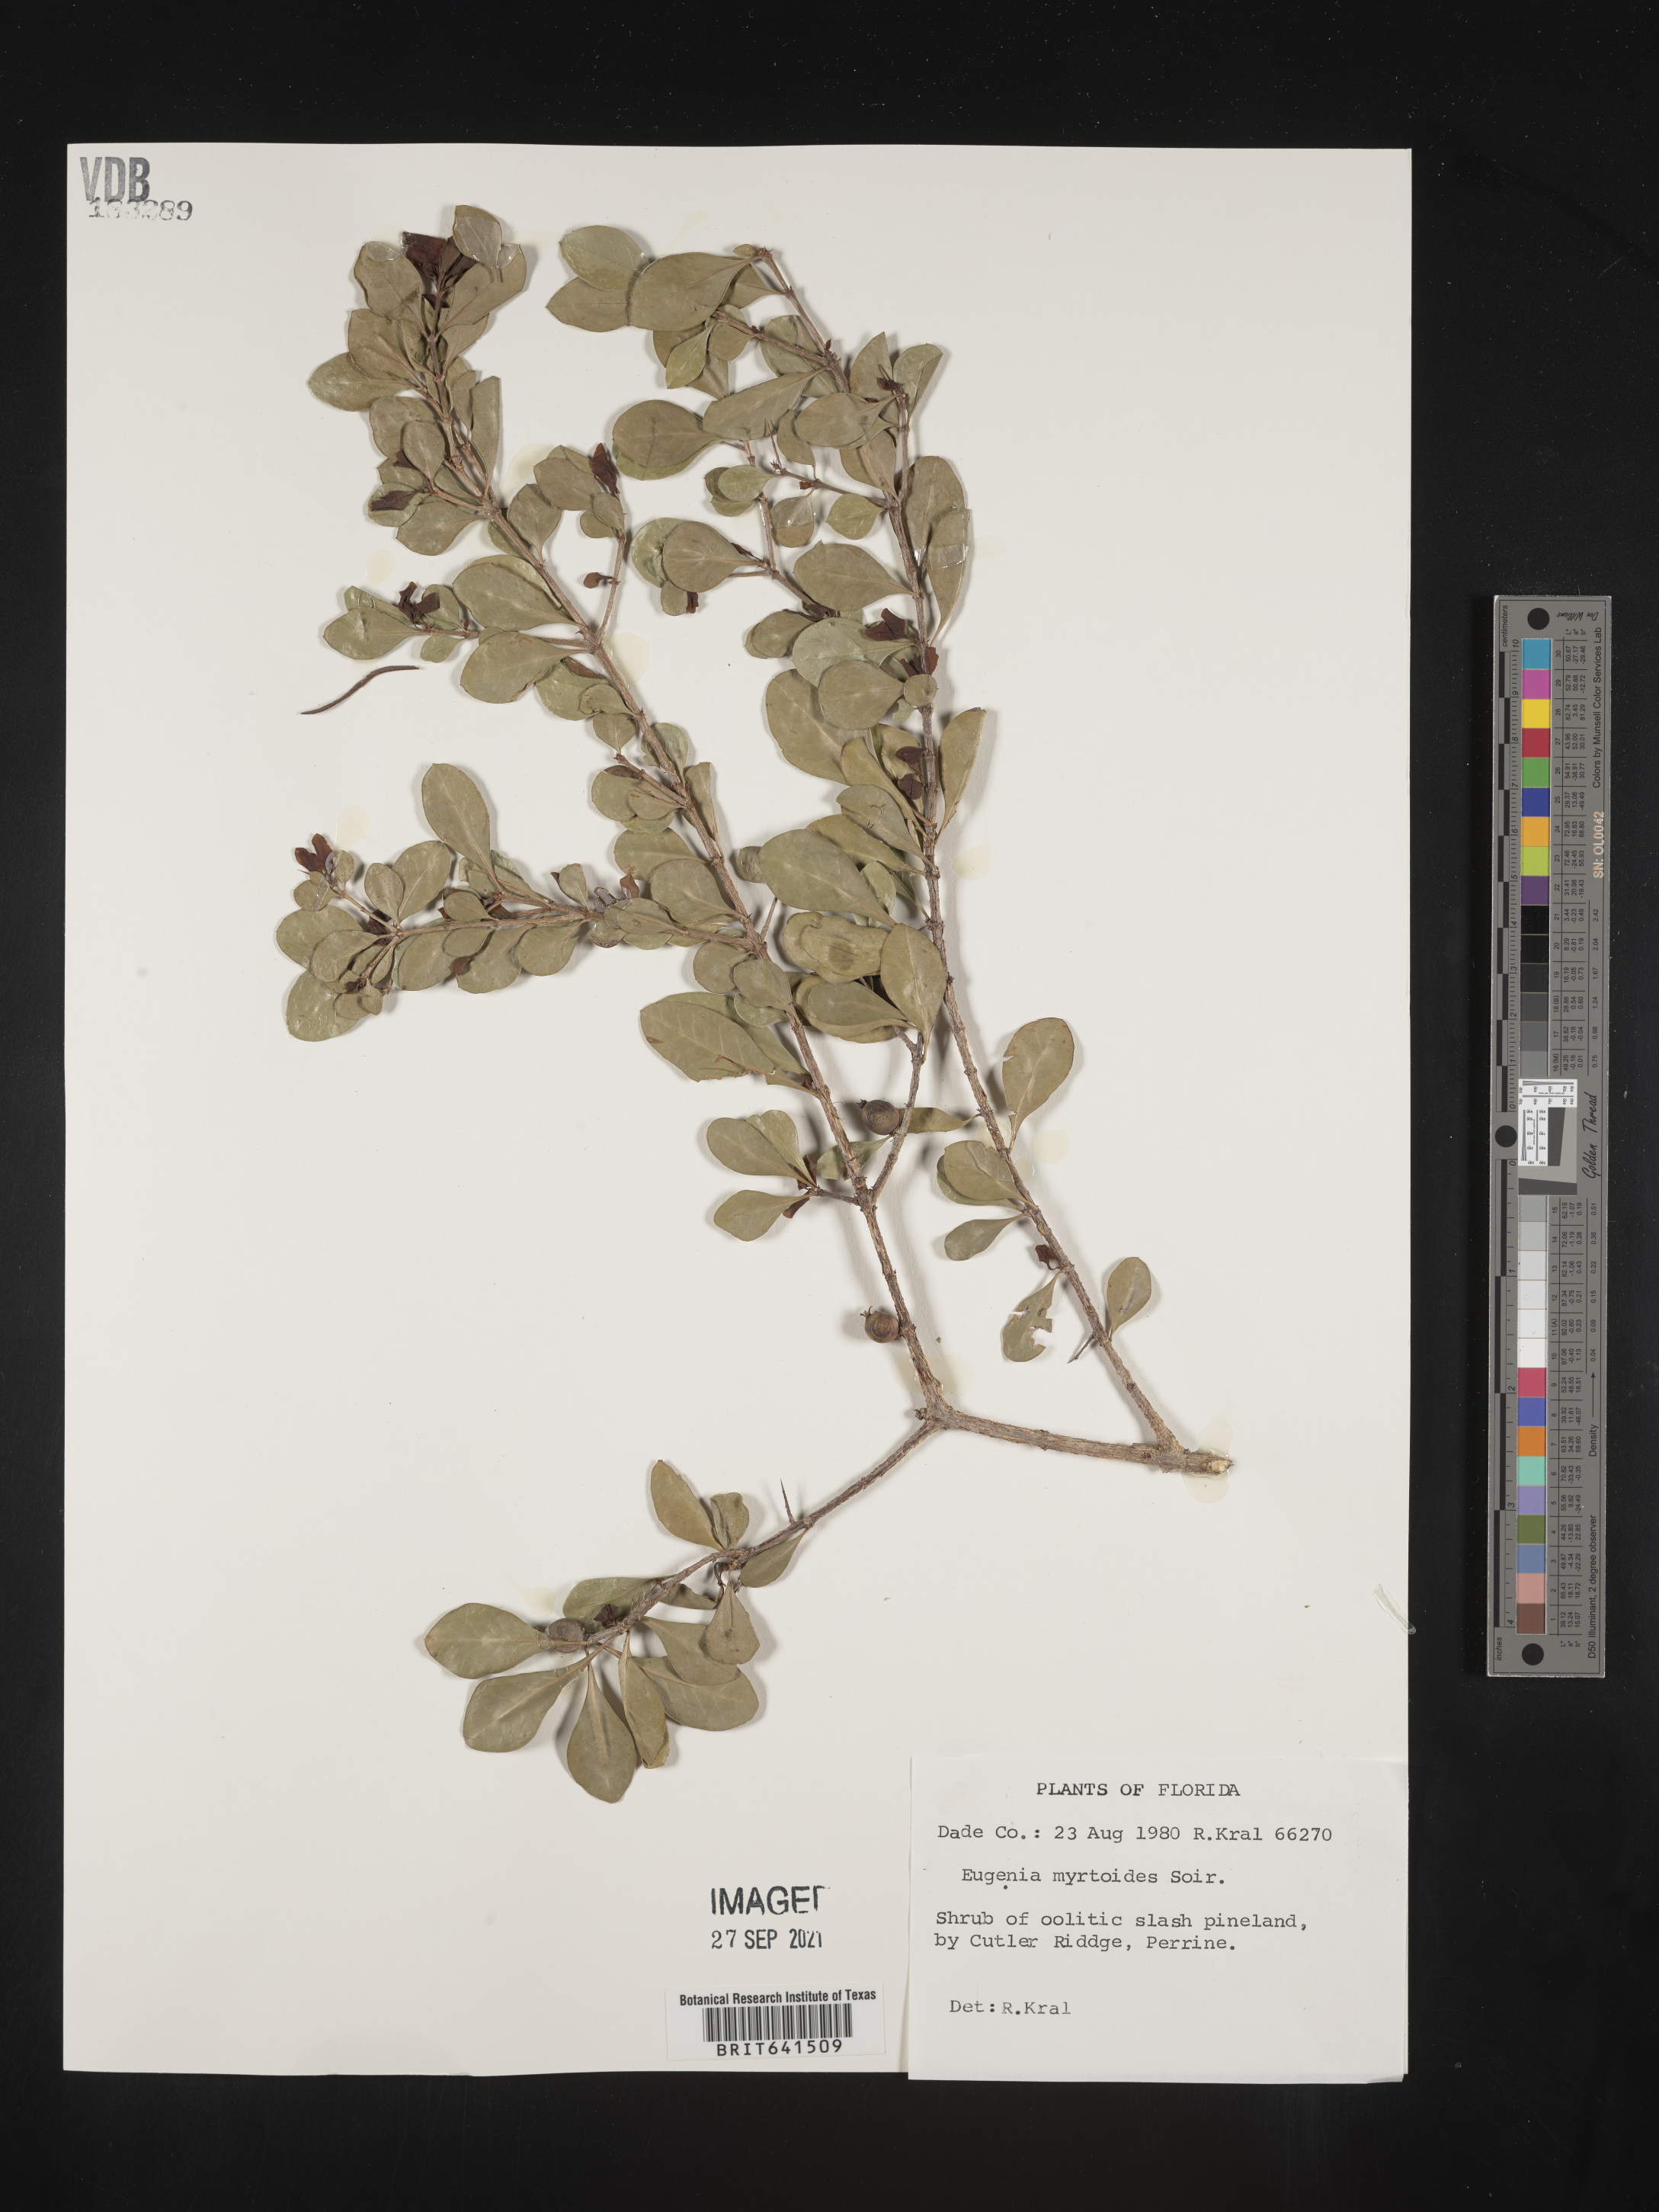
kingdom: Plantae
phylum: Tracheophyta
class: Magnoliopsida
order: Myrtales
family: Myrtaceae
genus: Eugenia
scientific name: Eugenia coronata
